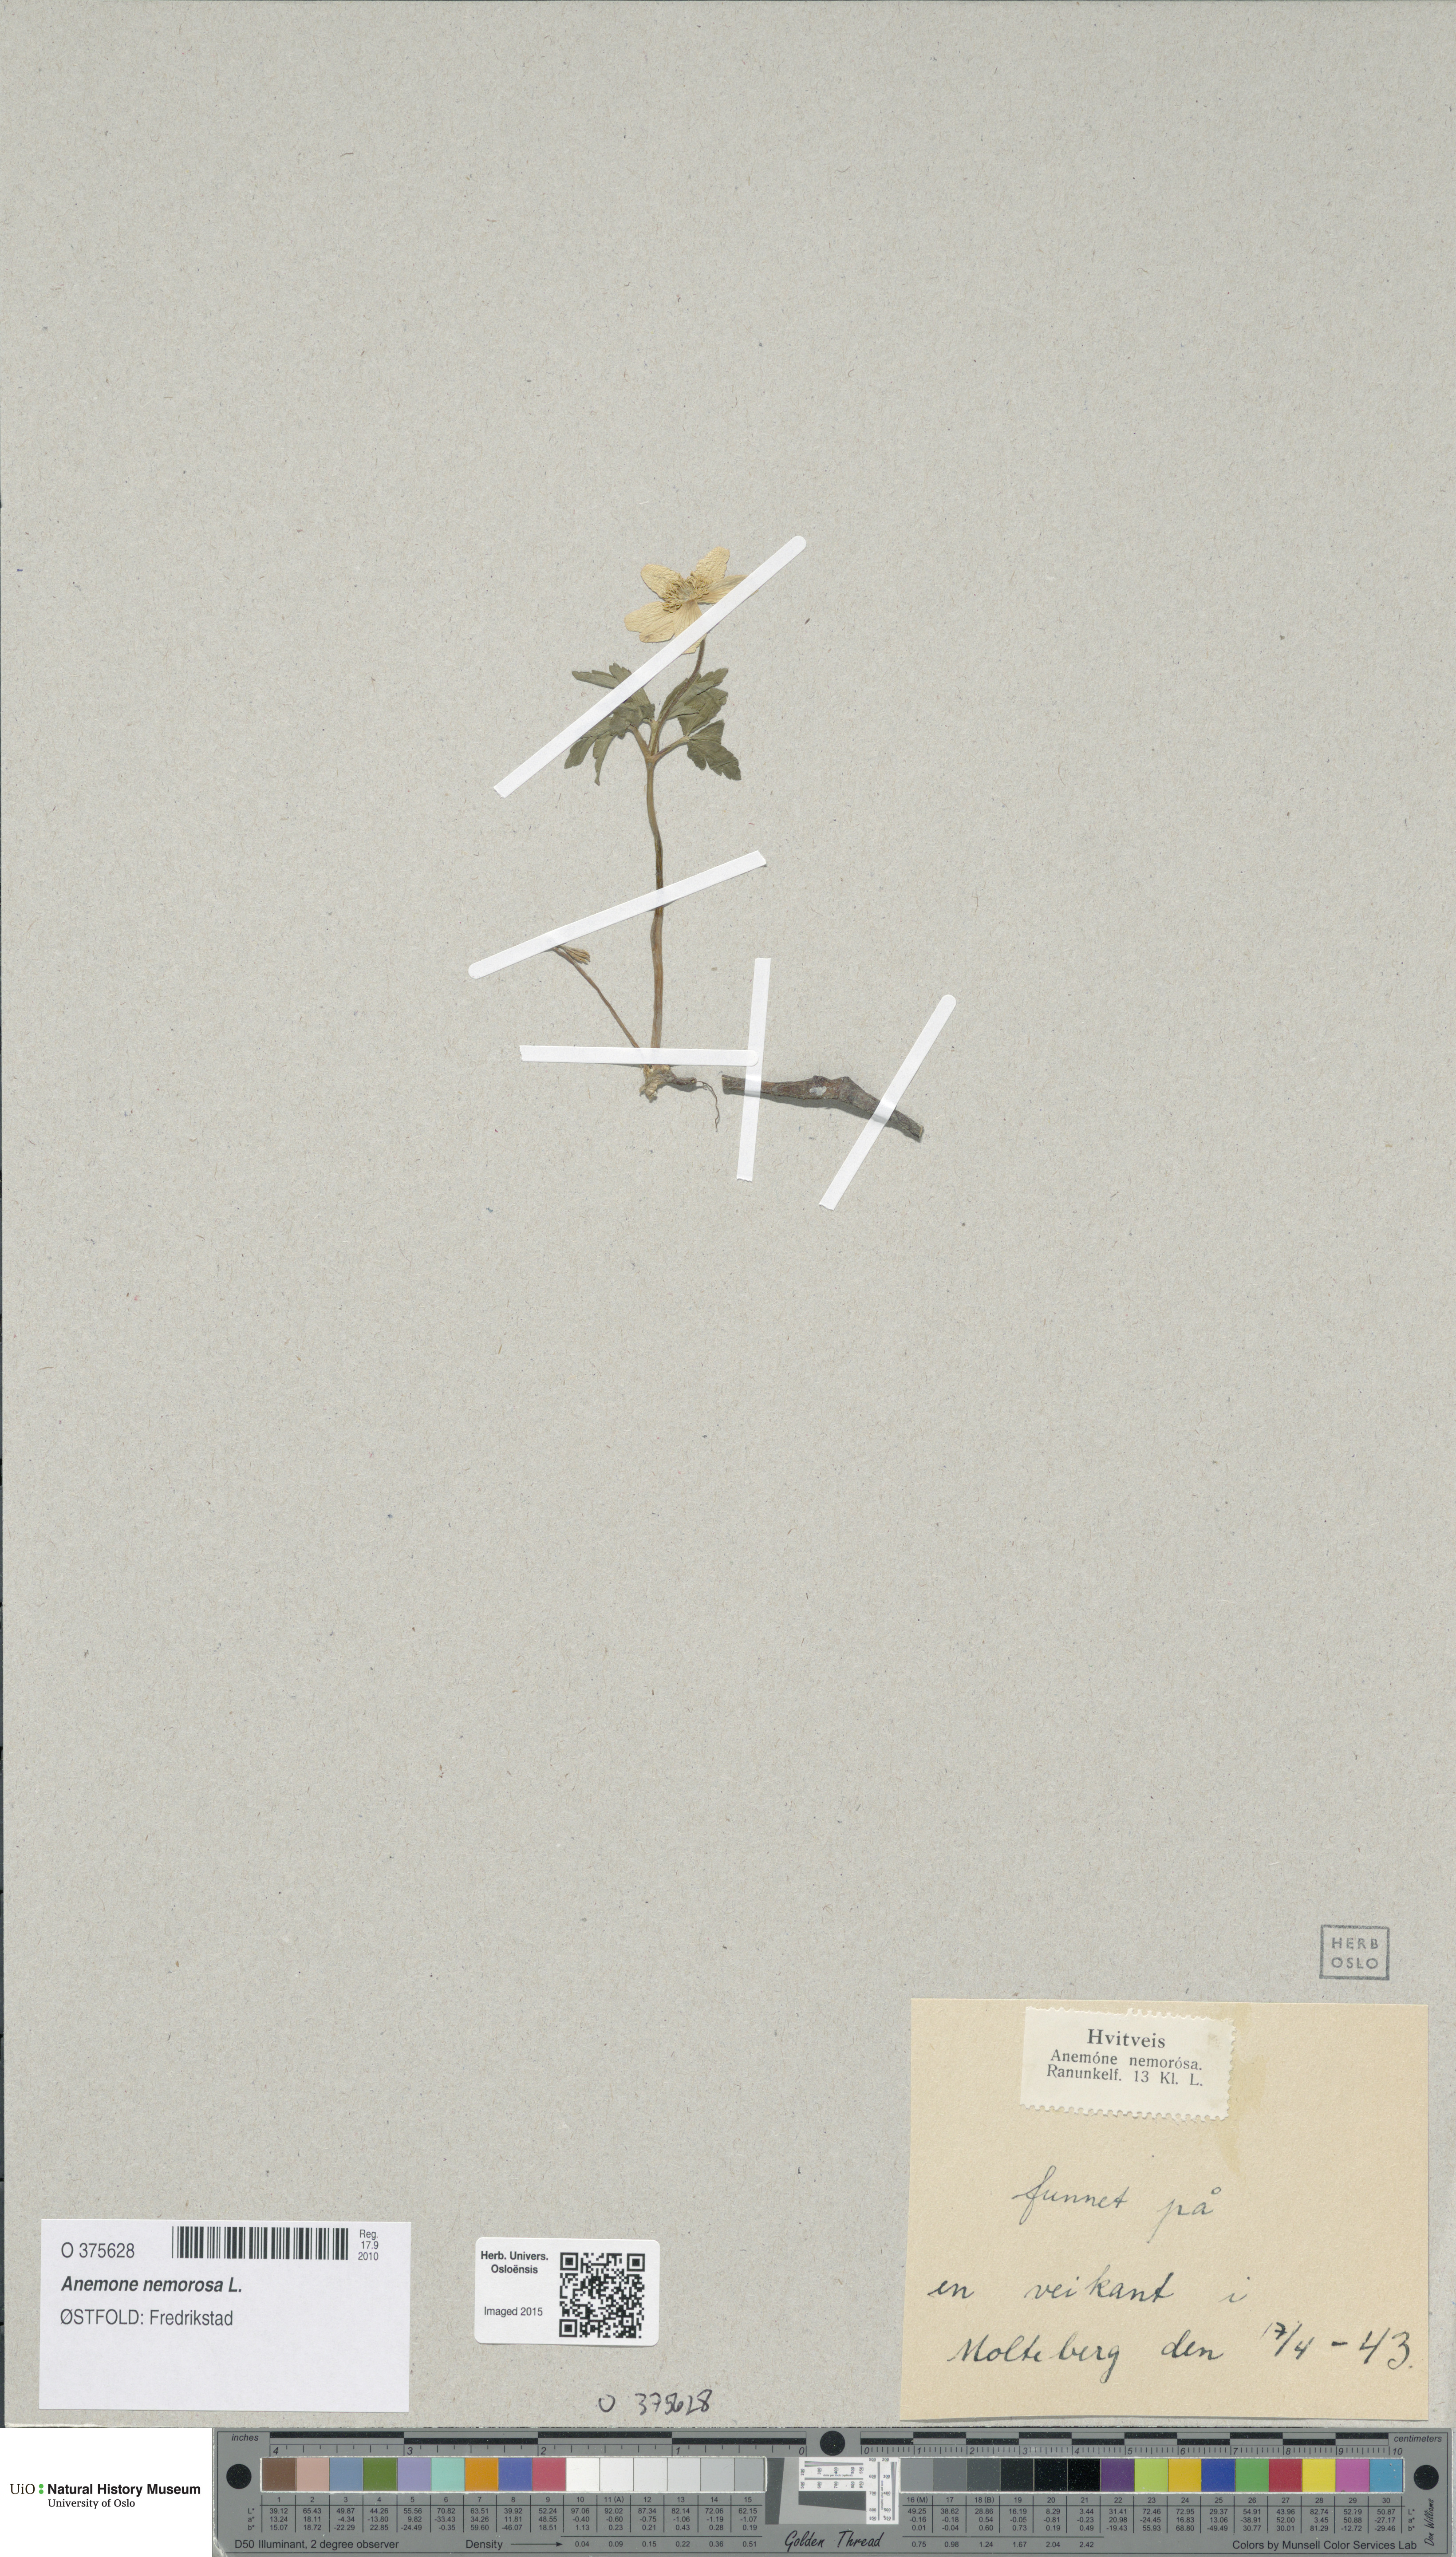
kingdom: Plantae
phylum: Tracheophyta
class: Magnoliopsida
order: Ranunculales
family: Ranunculaceae
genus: Anemone
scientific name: Anemone nemorosa
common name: Wood anemone
